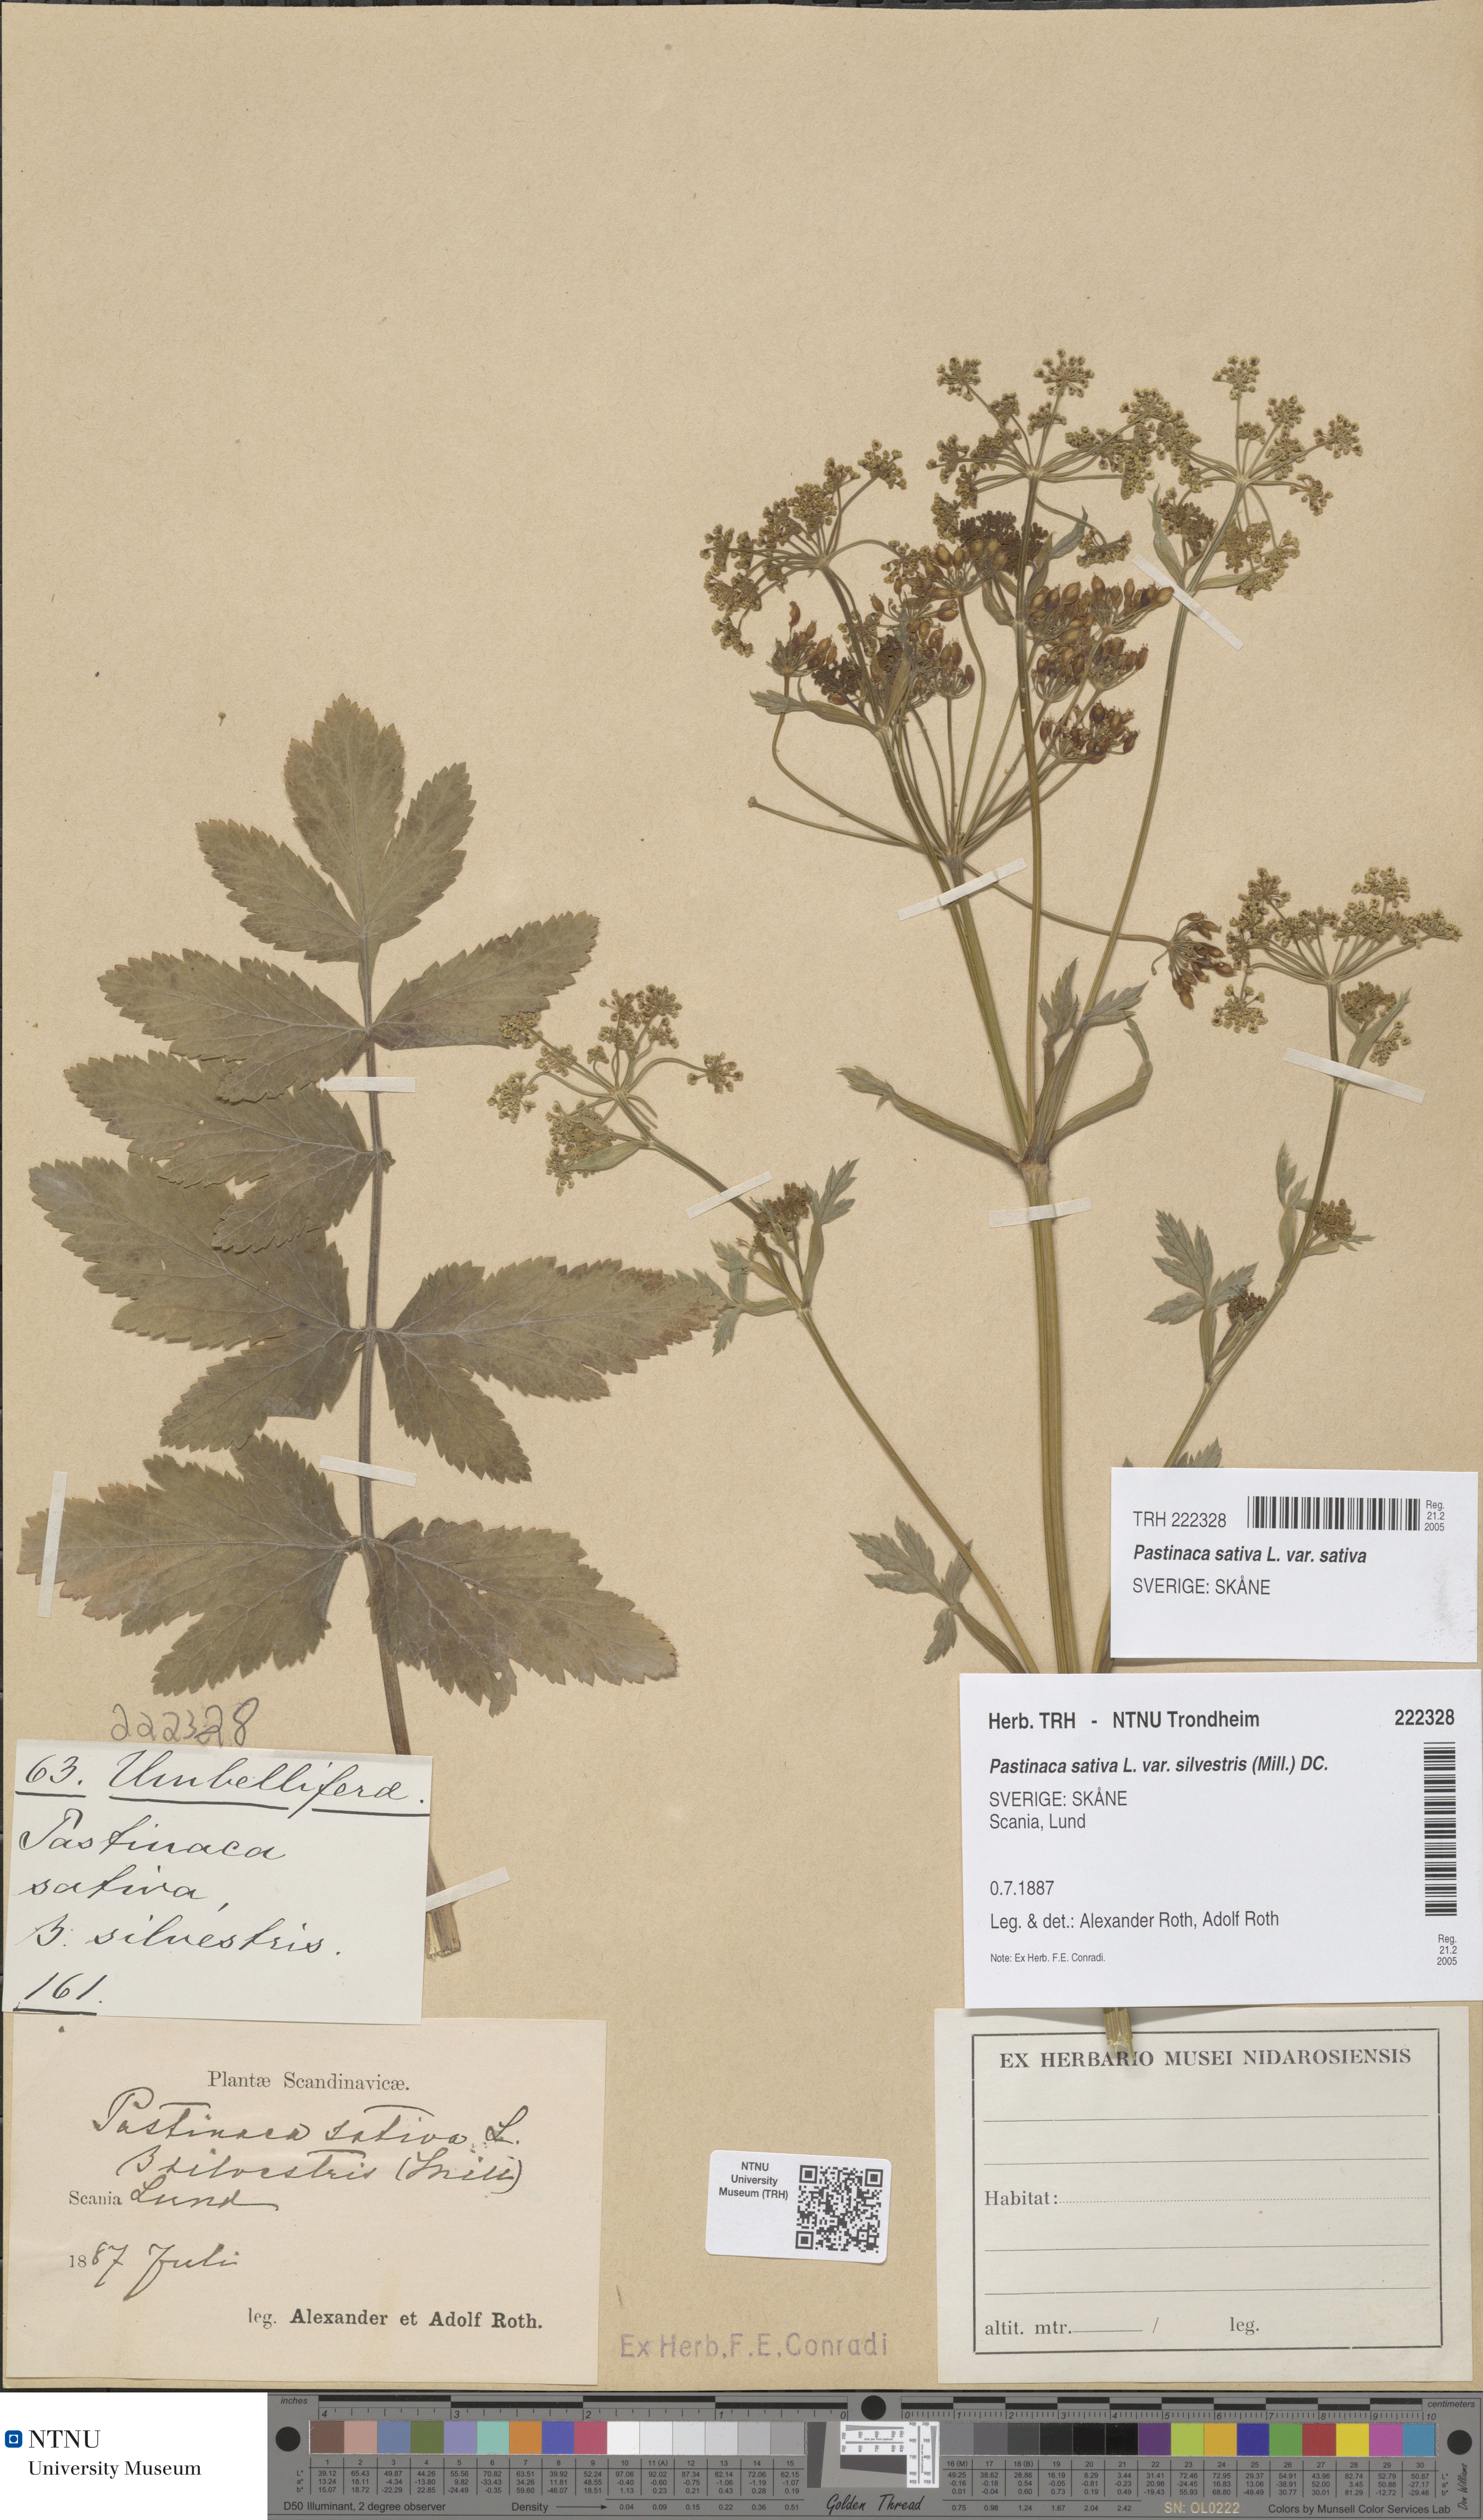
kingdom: Plantae
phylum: Tracheophyta
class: Magnoliopsida
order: Apiales
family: Apiaceae
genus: Pastinaca
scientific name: Pastinaca sativa
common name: Wild parsnip
